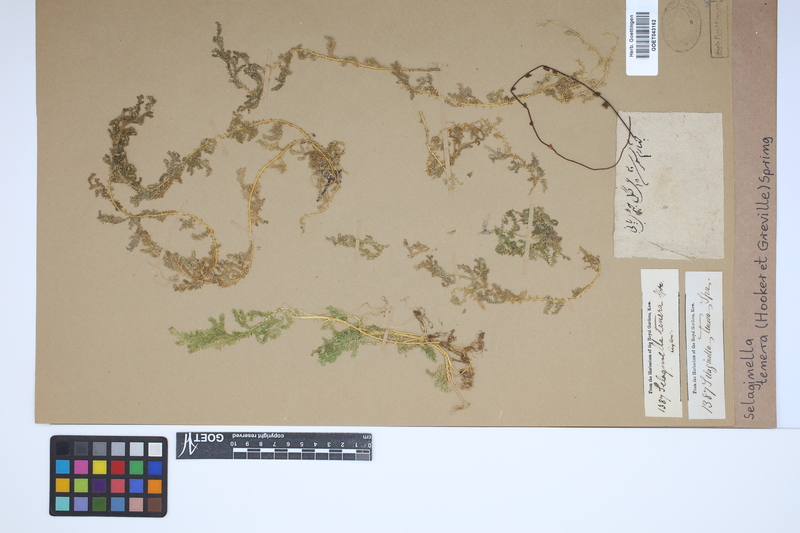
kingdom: Plantae
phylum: Tracheophyta
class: Lycopodiopsida
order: Selaginellales
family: Selaginellaceae
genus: Selaginella
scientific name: Selaginella tenera
